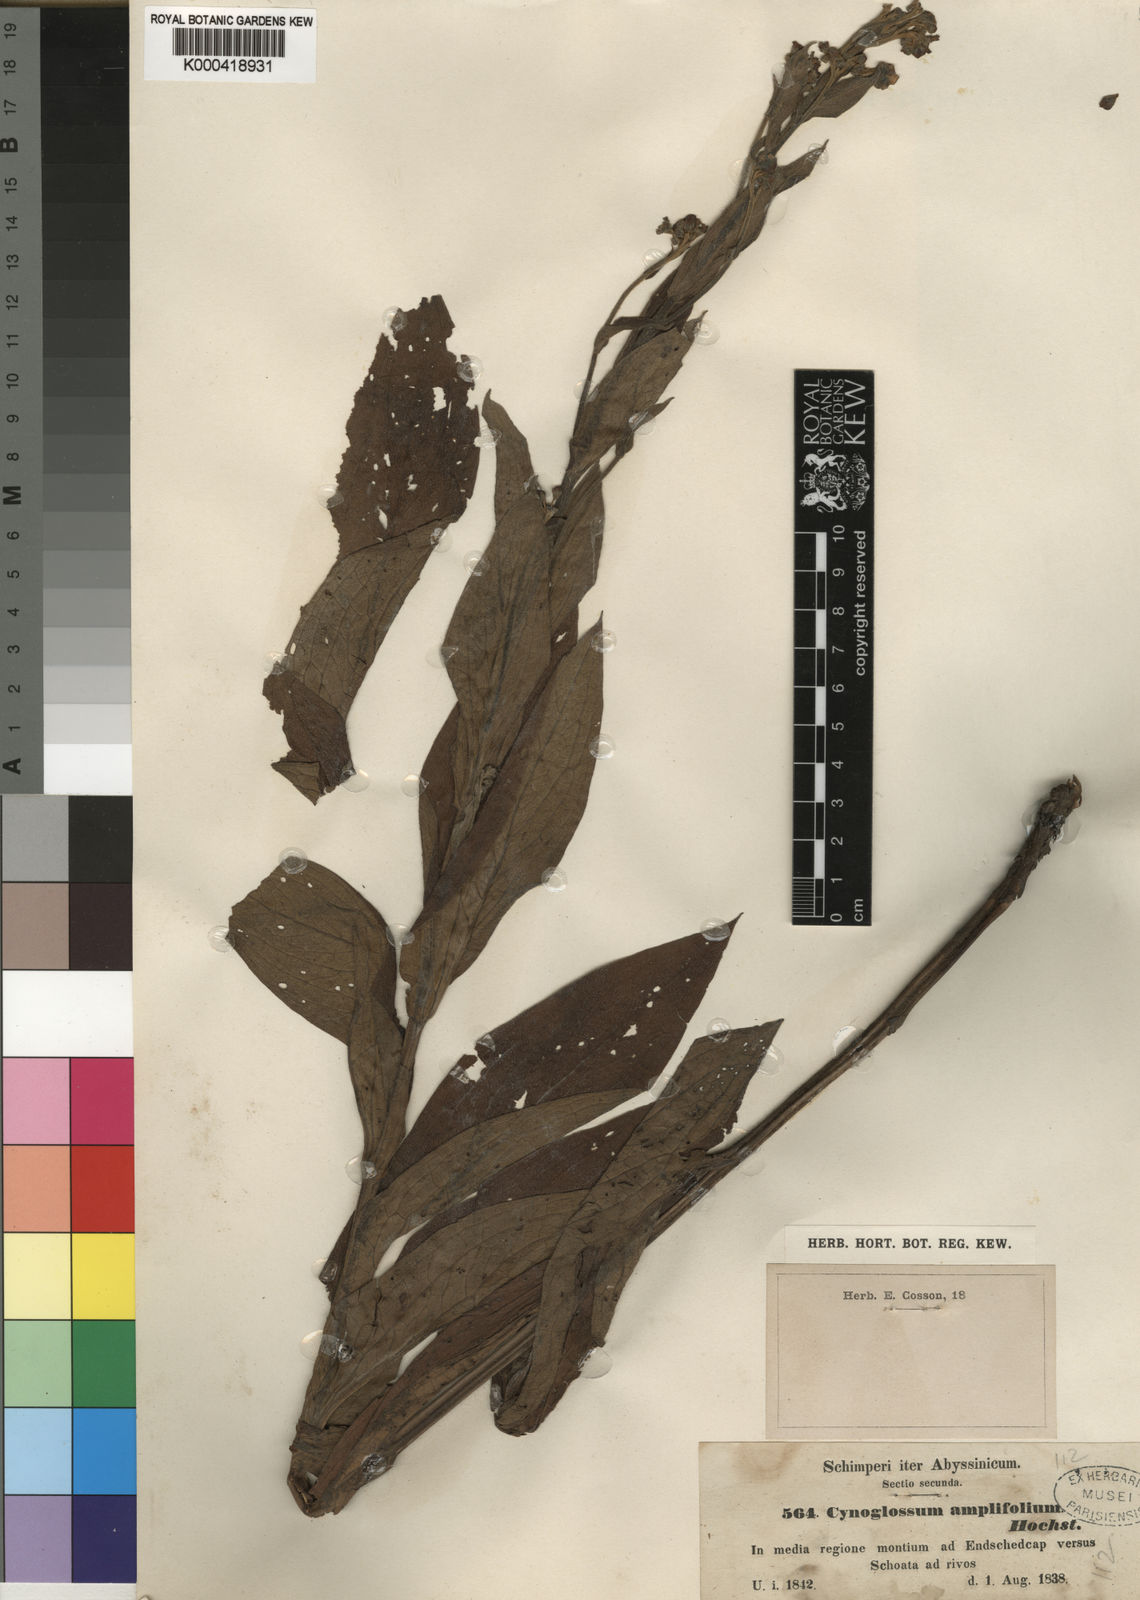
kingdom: Plantae
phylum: Tracheophyta
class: Magnoliopsida
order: Boraginales
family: Boraginaceae
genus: Cynoglossum
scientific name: Cynoglossum amplifolium
